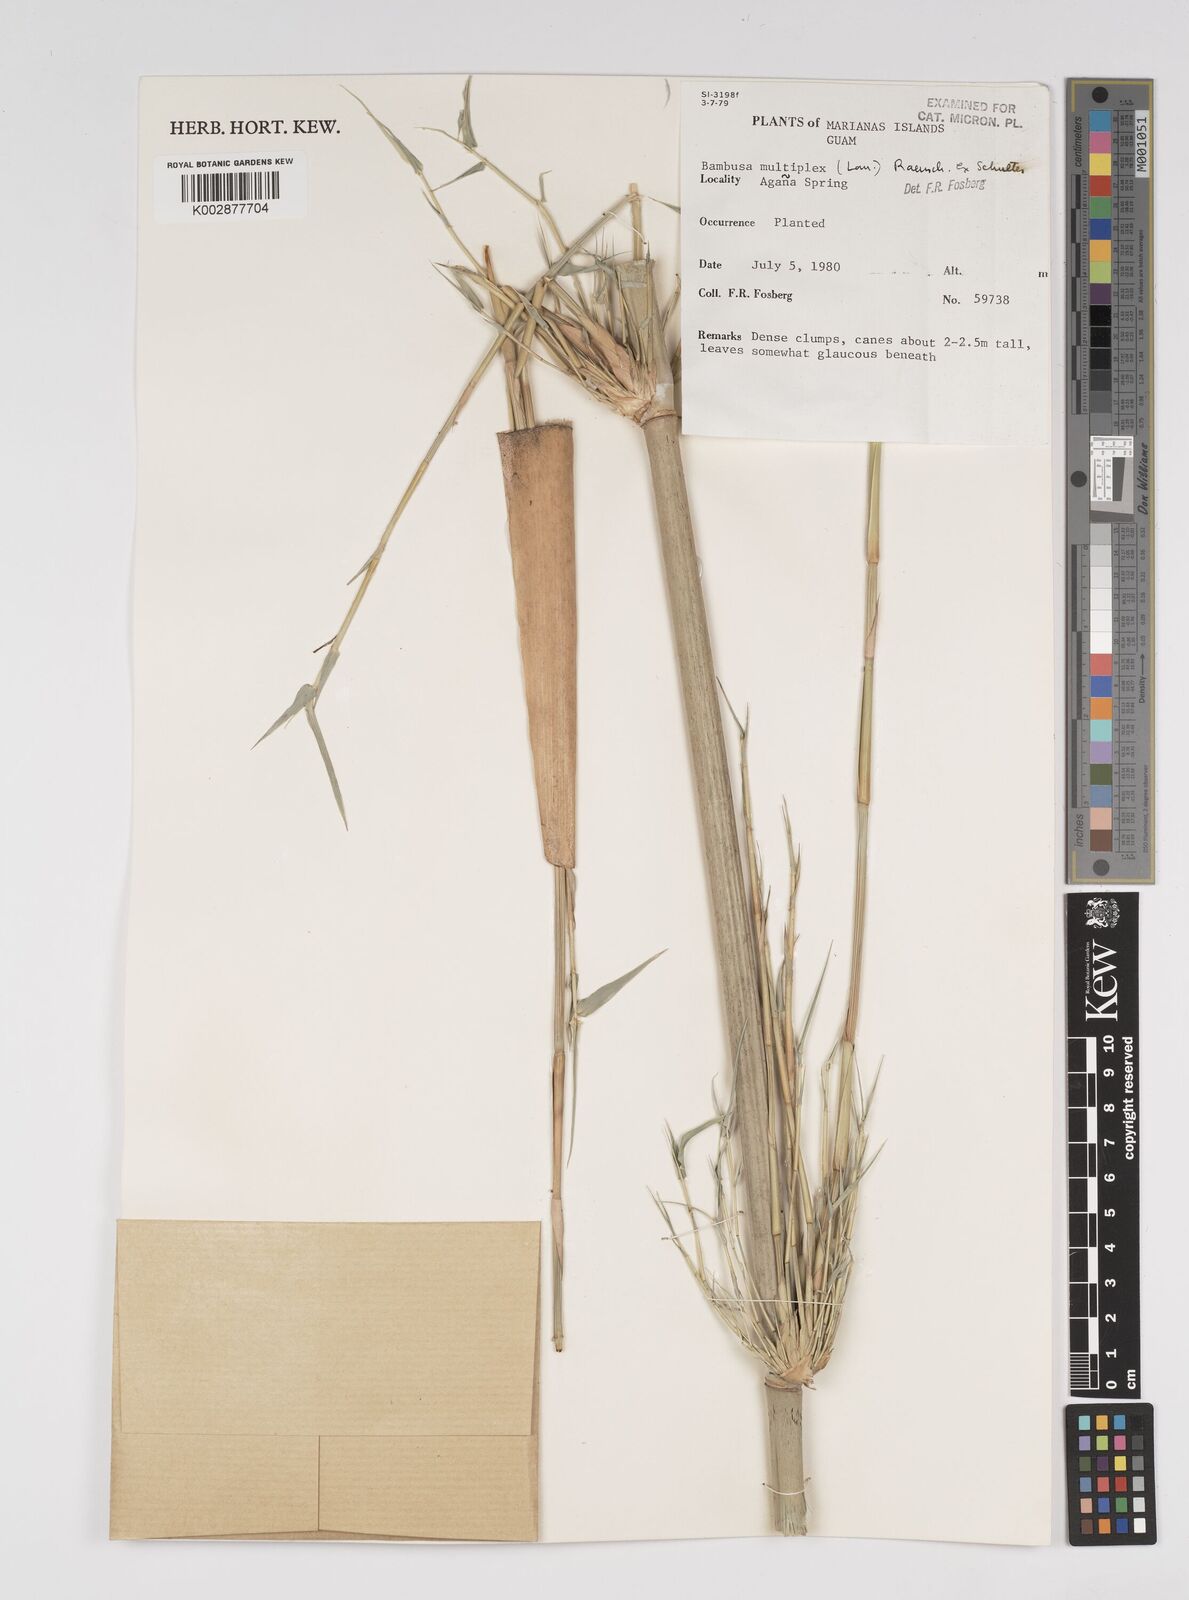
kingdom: Plantae
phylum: Tracheophyta
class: Liliopsida
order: Poales
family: Poaceae
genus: Bambusa
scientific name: Bambusa multiplex
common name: Hedge bamboo
